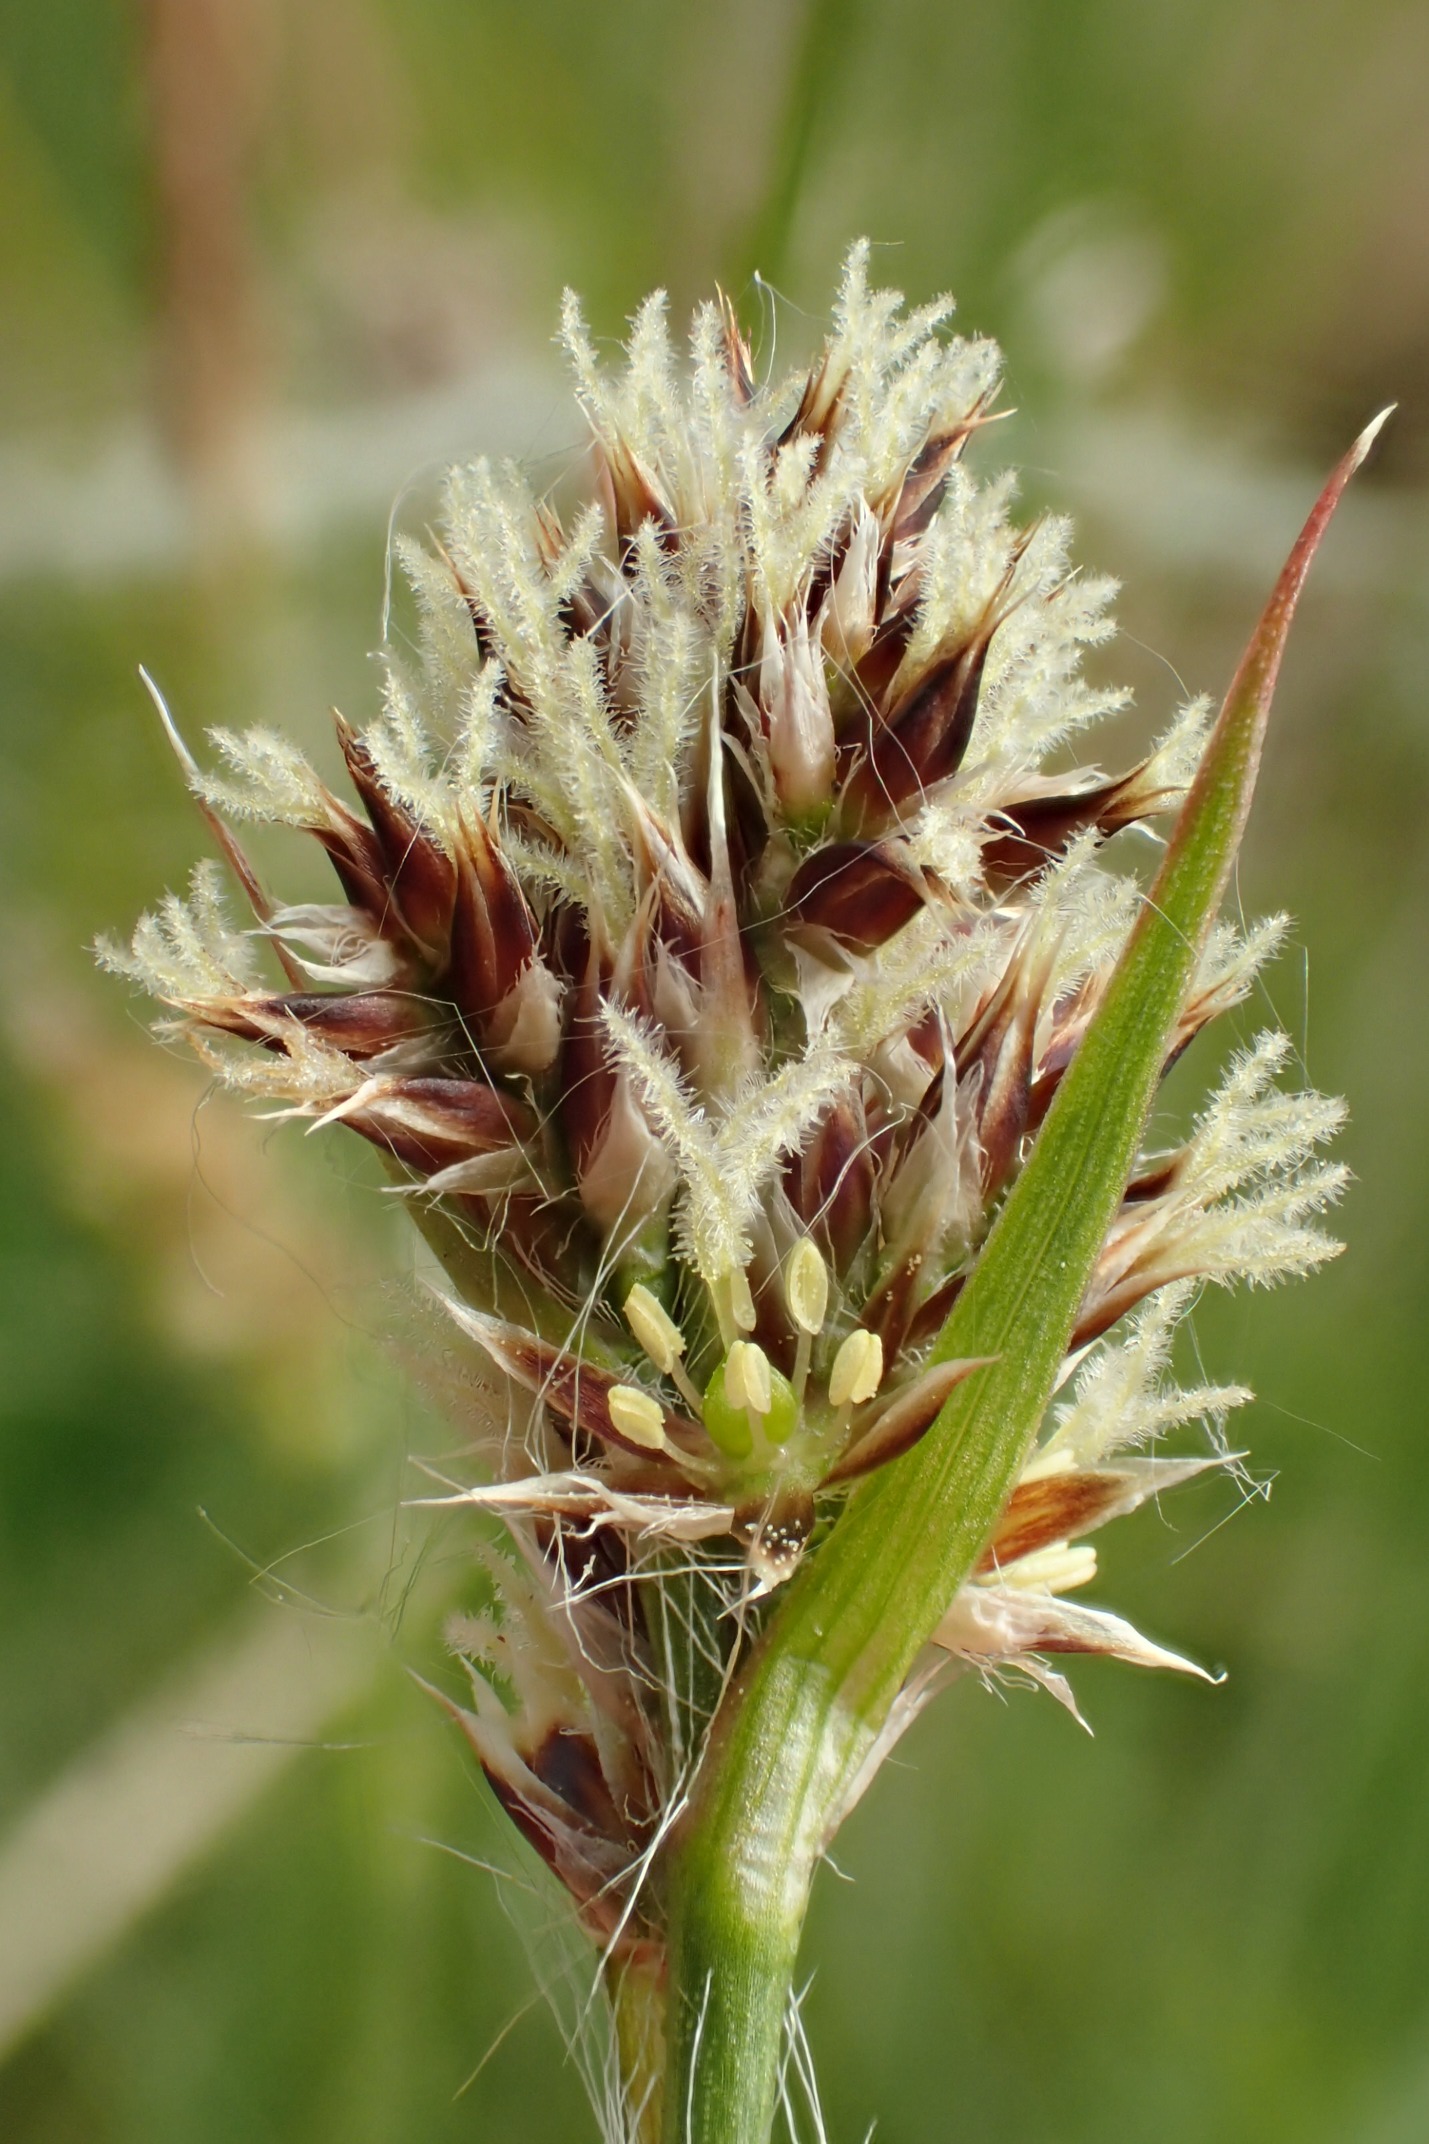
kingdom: Plantae
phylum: Tracheophyta
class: Liliopsida
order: Poales
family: Juncaceae
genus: Luzula
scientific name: Luzula congesta
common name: Hoved-frytle
